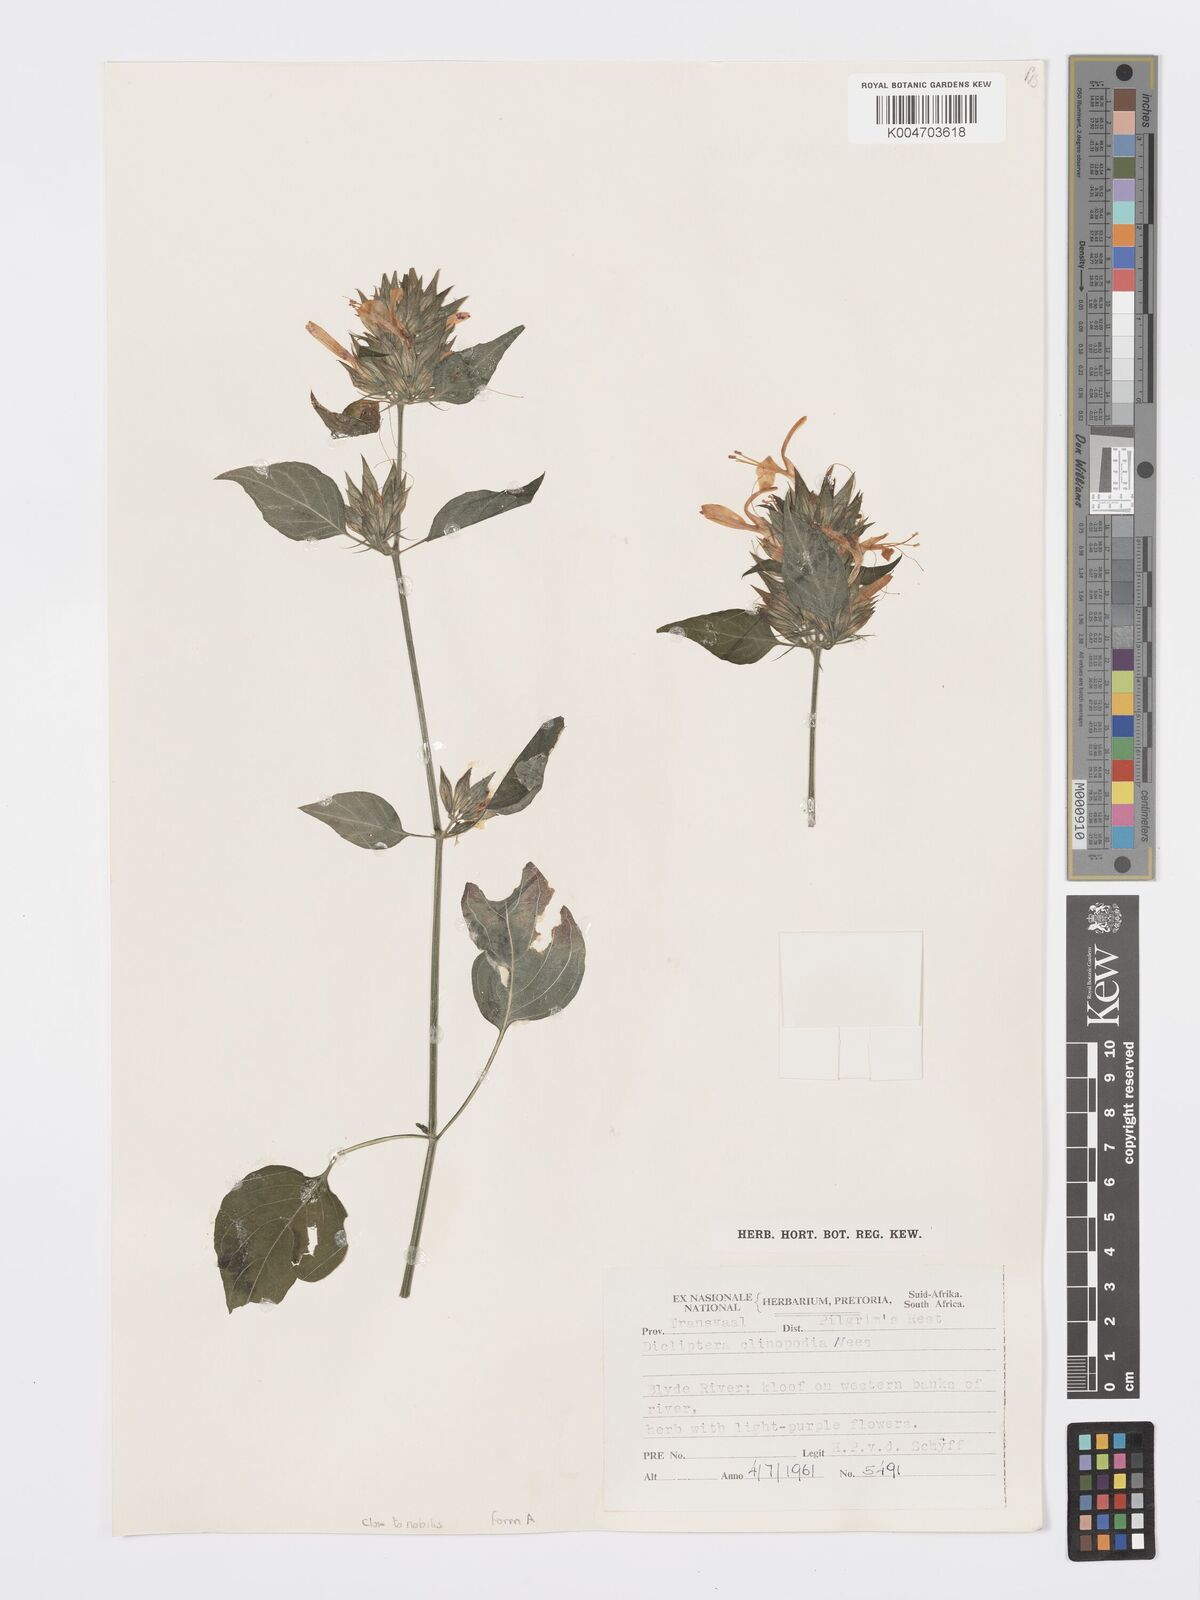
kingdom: Plantae
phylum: Tracheophyta
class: Magnoliopsida
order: Lamiales
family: Acanthaceae
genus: Dicliptera
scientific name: Dicliptera clinopodia
